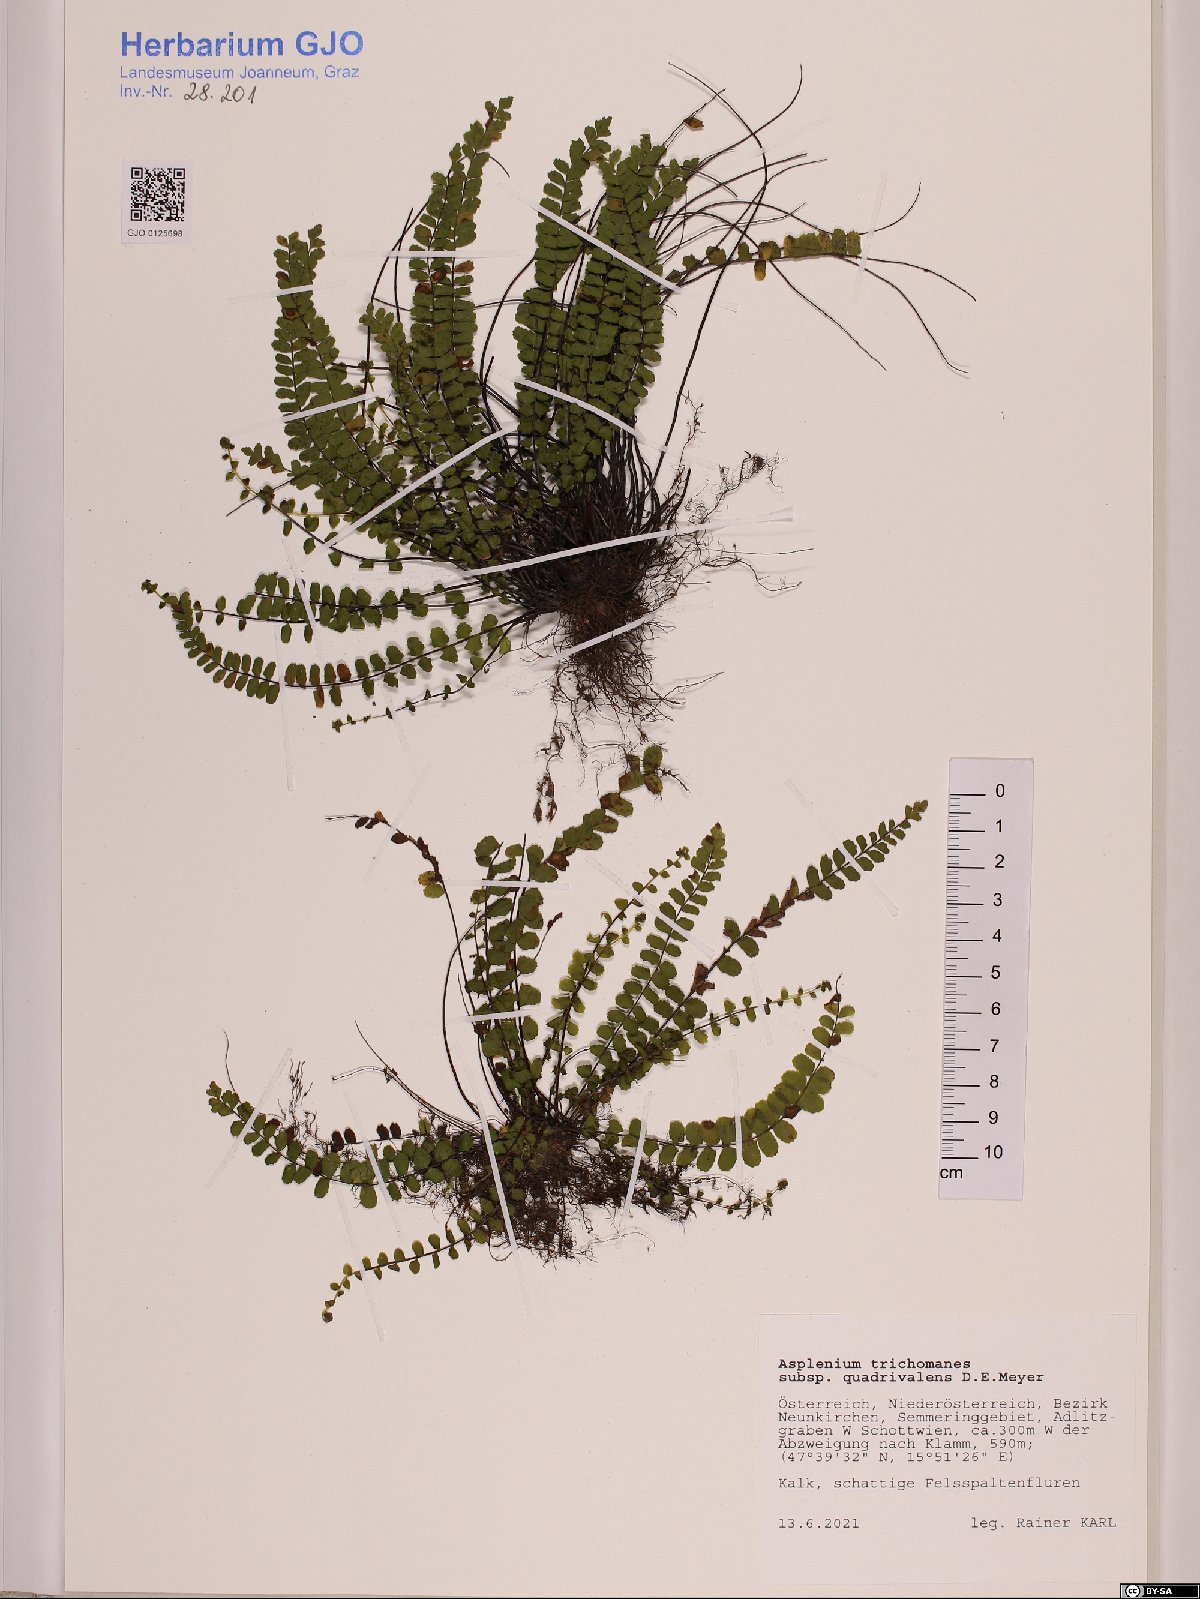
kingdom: Plantae
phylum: Tracheophyta
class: Polypodiopsida
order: Polypodiales
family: Aspleniaceae
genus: Asplenium
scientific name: Asplenium quadrivalens
